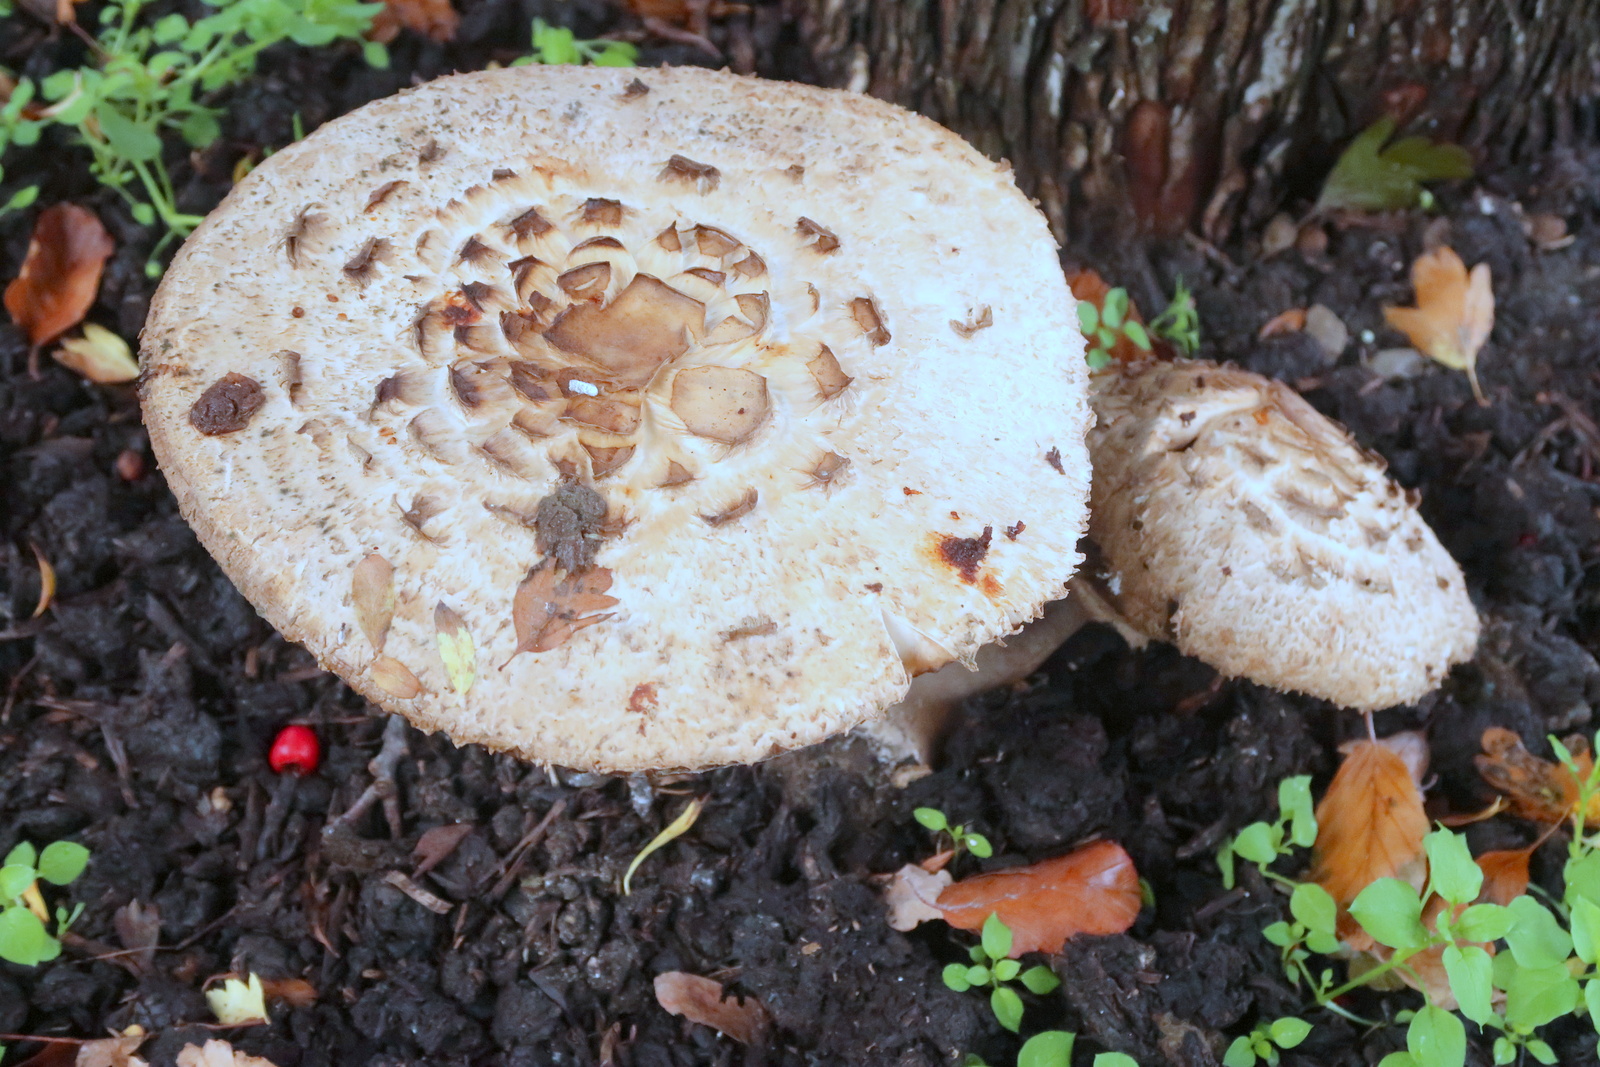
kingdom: Fungi
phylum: Basidiomycota
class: Agaricomycetes
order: Agaricales
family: Agaricaceae
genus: Chlorophyllum
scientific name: Chlorophyllum
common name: rabarberhat
